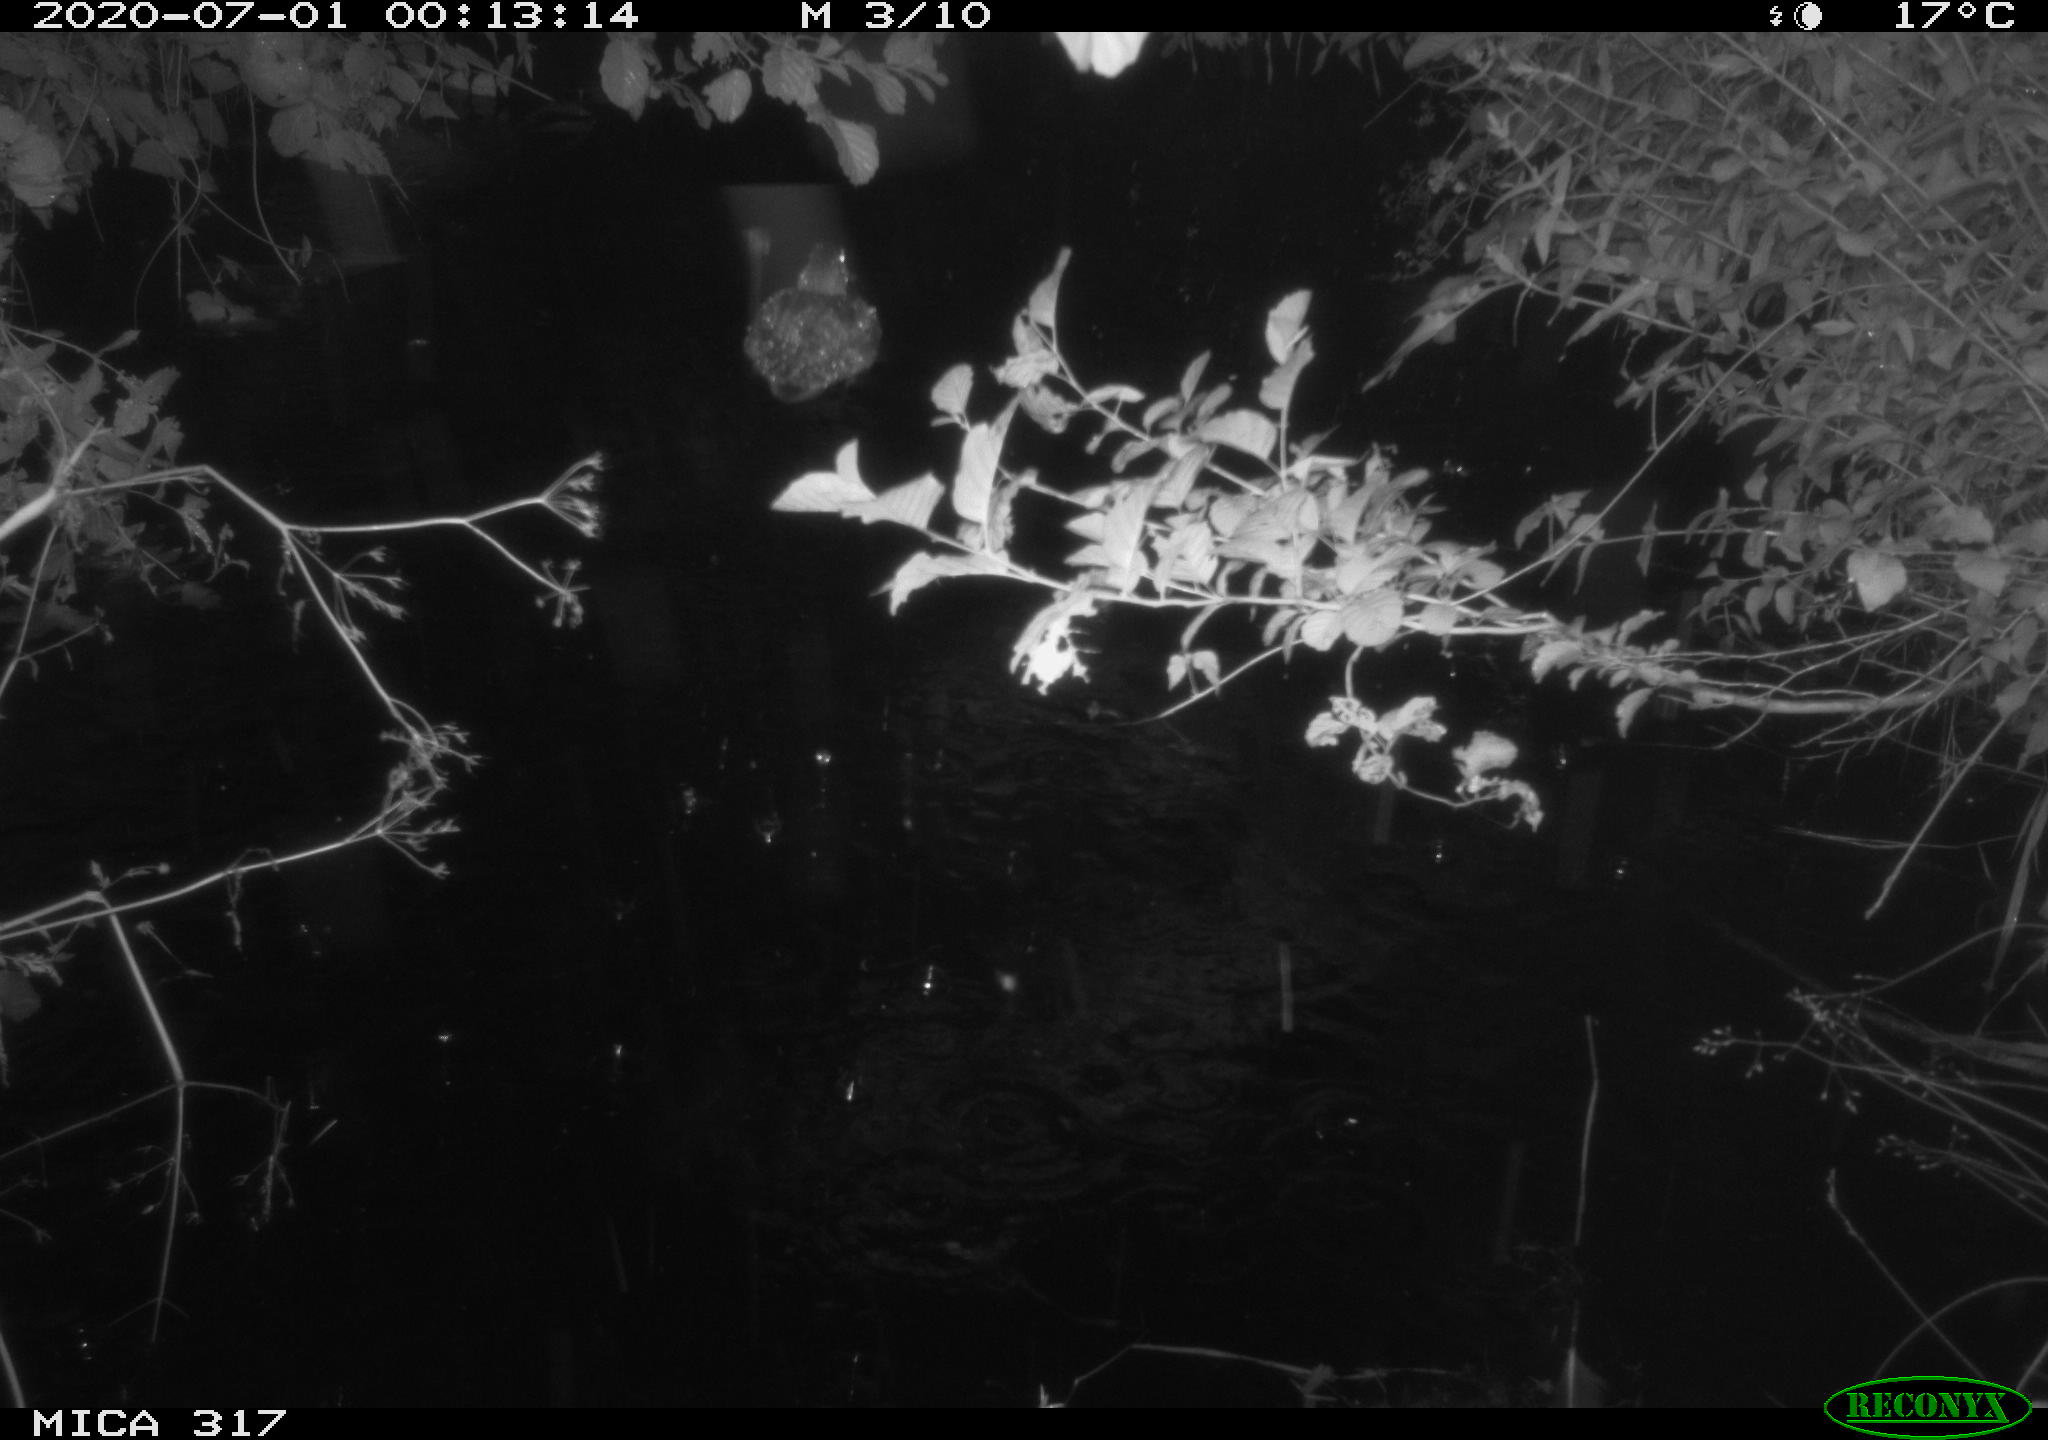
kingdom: Animalia
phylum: Chordata
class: Aves
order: Anseriformes
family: Anatidae
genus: Anas
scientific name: Anas platyrhynchos
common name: Mallard
